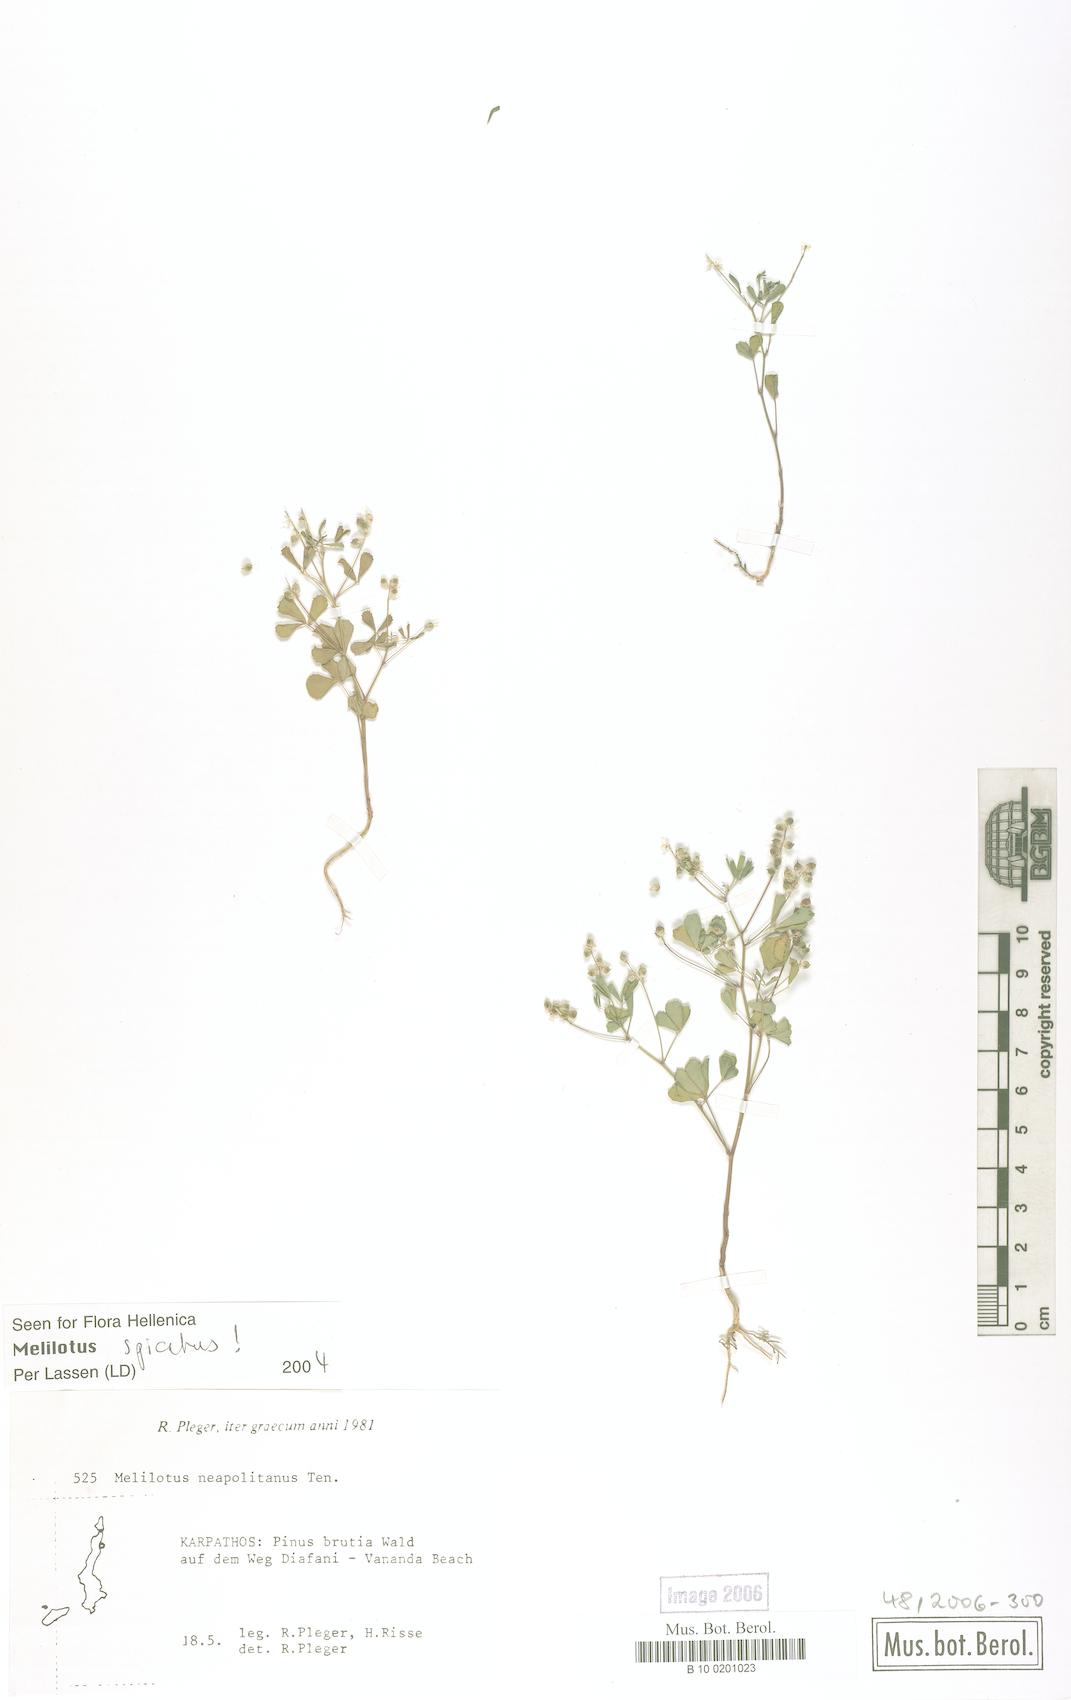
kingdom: Plantae
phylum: Tracheophyta
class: Magnoliopsida
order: Fabales
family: Fabaceae
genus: Melilotus
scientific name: Melilotus neapolitanus
